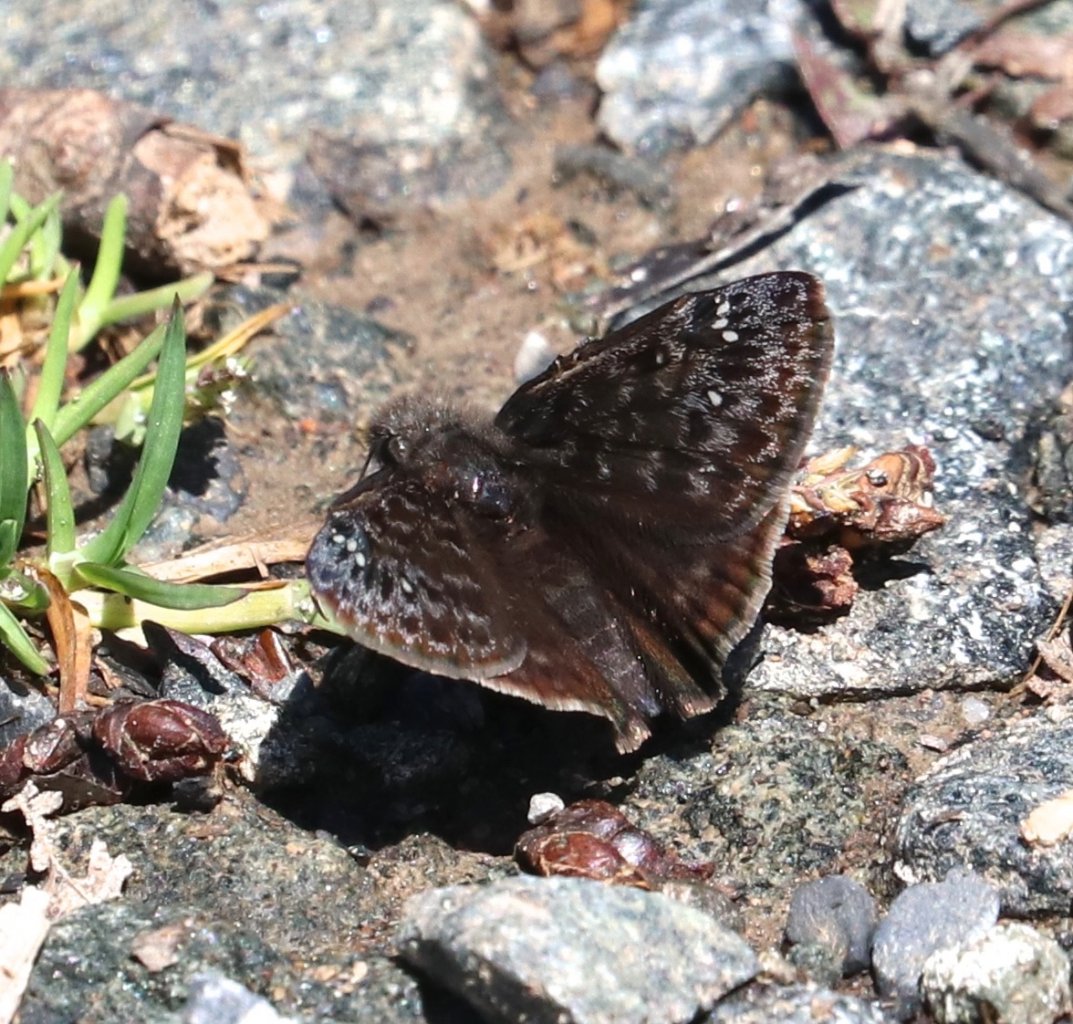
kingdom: Animalia
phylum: Arthropoda
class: Insecta
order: Lepidoptera
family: Hesperiidae
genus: Gesta
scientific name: Gesta
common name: Juvenal's Duskywing
